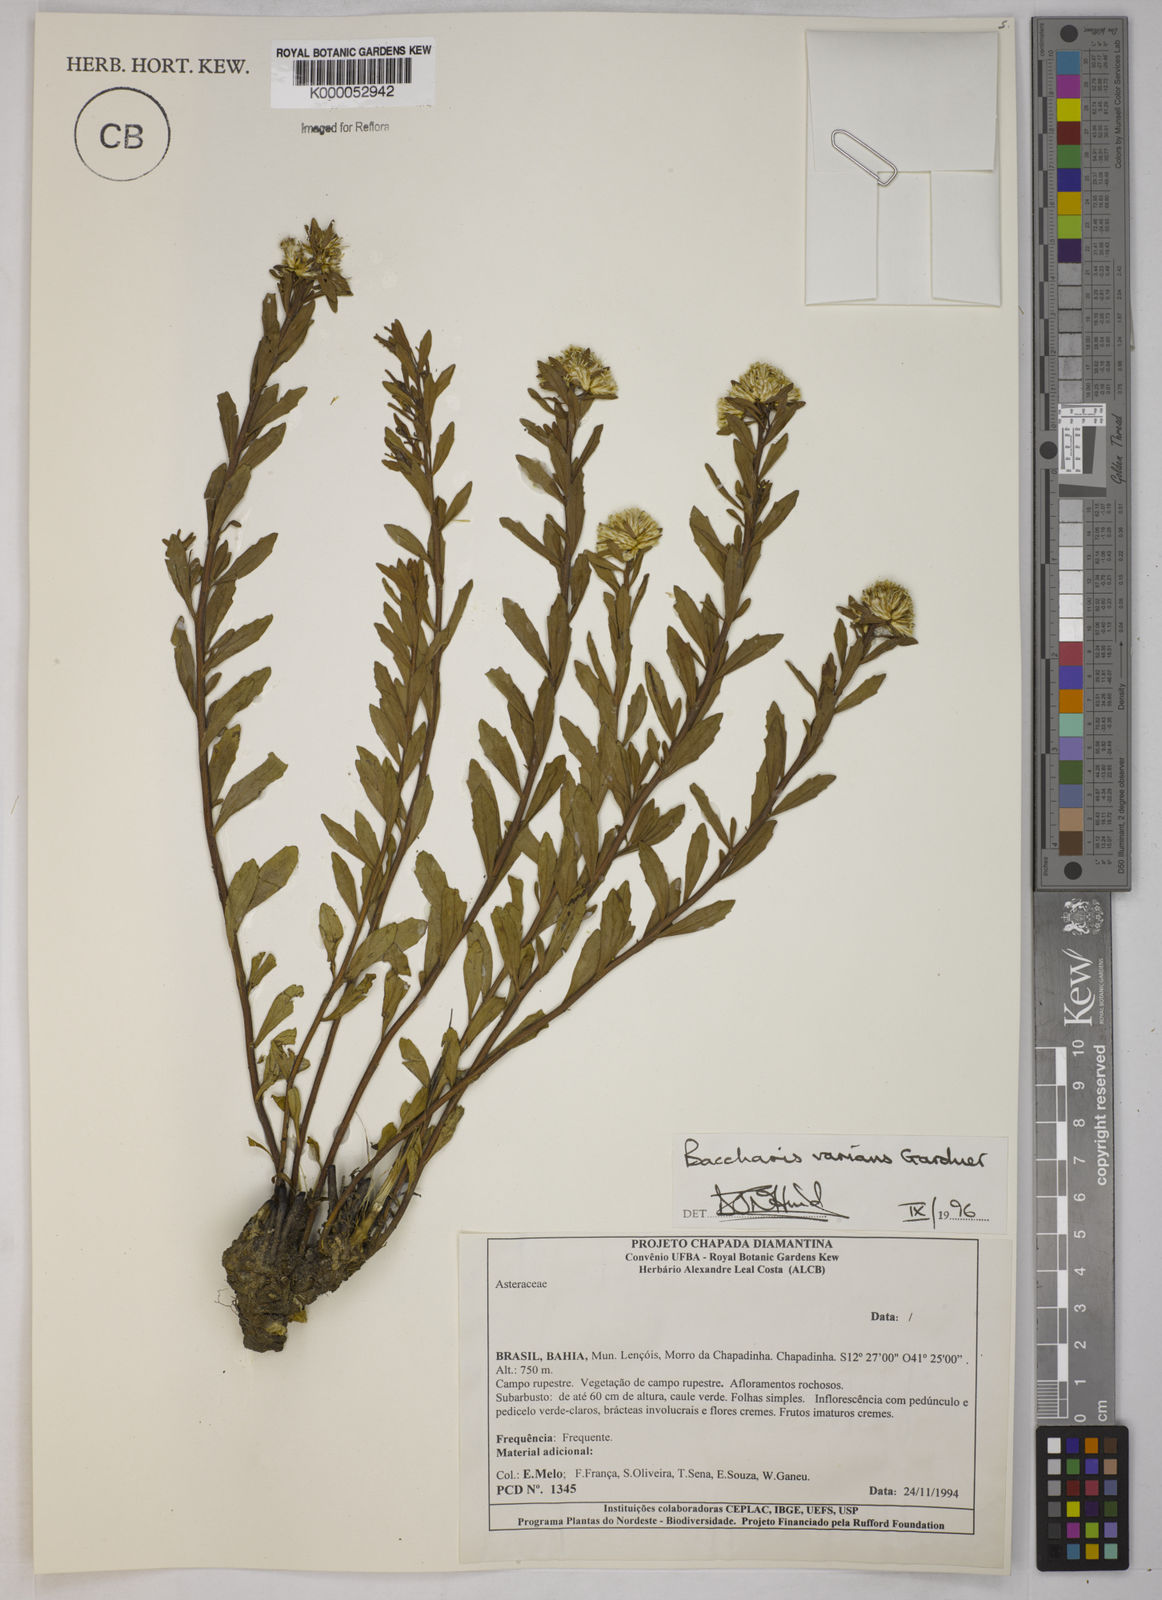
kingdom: Plantae
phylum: Tracheophyta
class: Magnoliopsida
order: Asterales
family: Asteraceae
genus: Baccharis
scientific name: Baccharis varians
